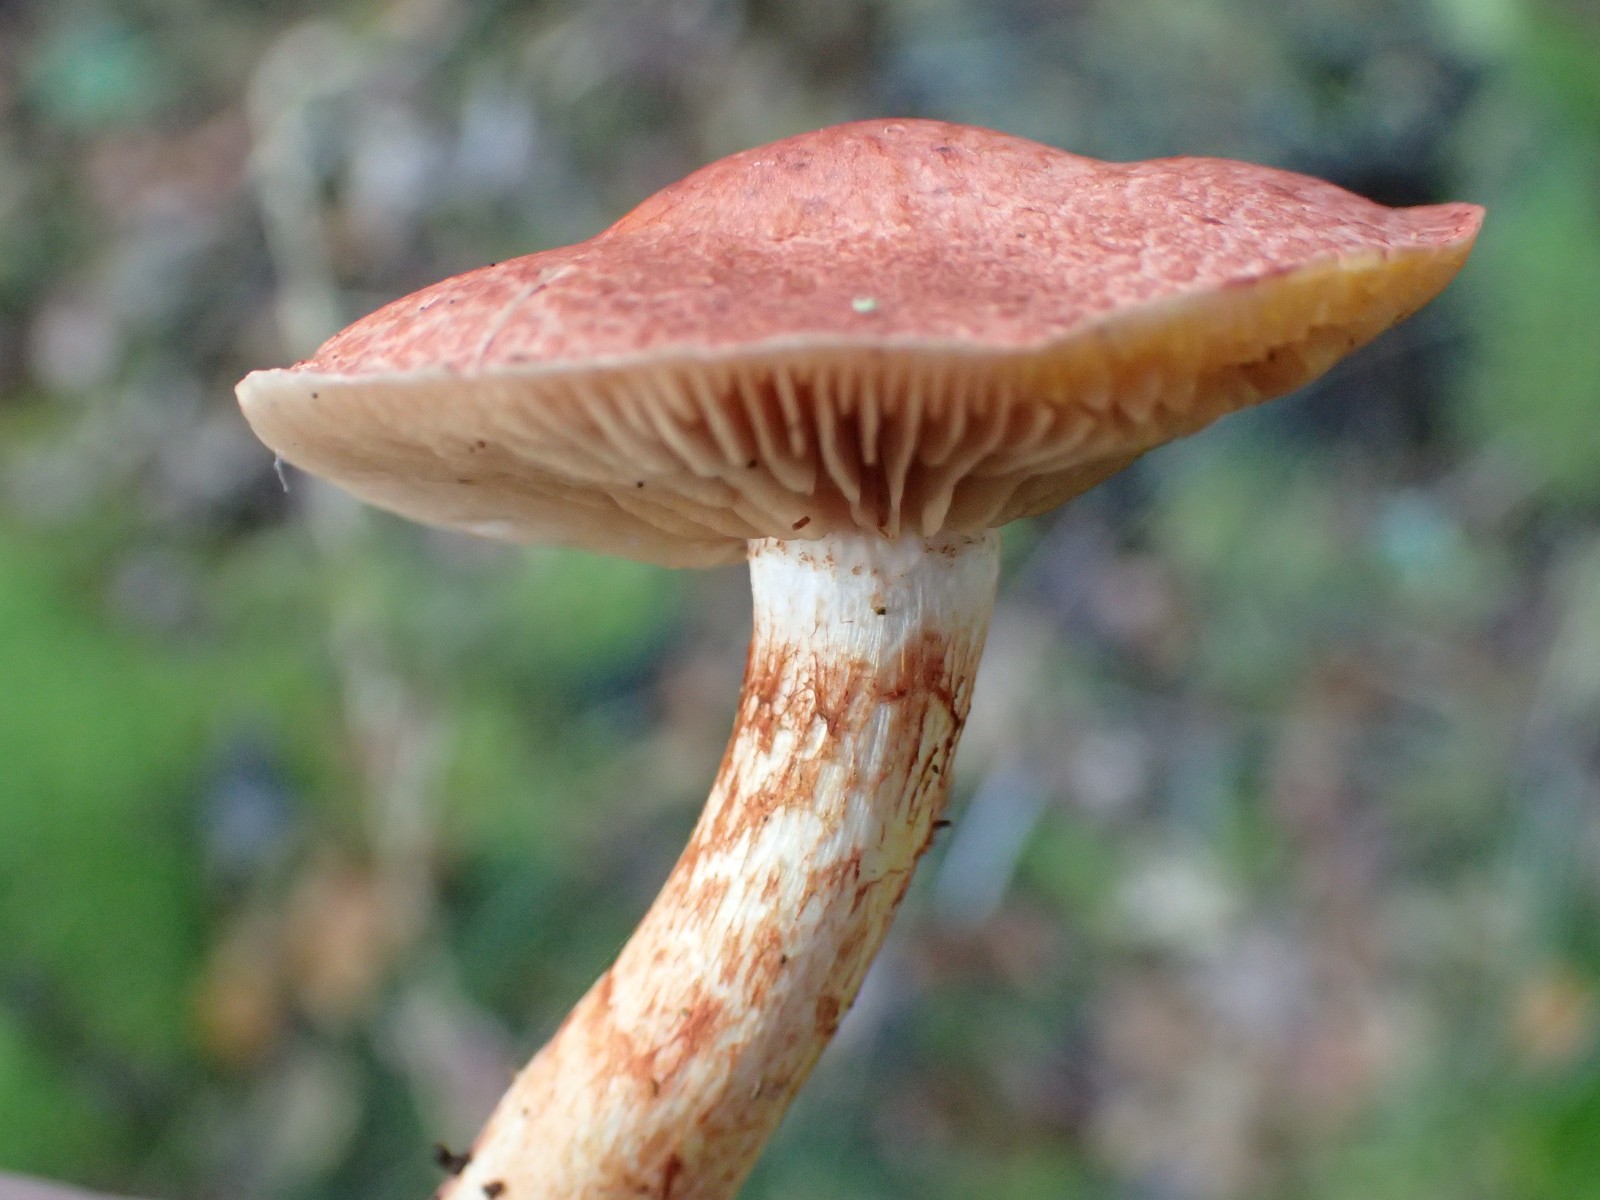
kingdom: Fungi
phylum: Basidiomycota
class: Agaricomycetes
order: Agaricales
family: Cortinariaceae
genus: Cortinarius
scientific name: Cortinarius bolaris
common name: cinnoberskællet slørhat
